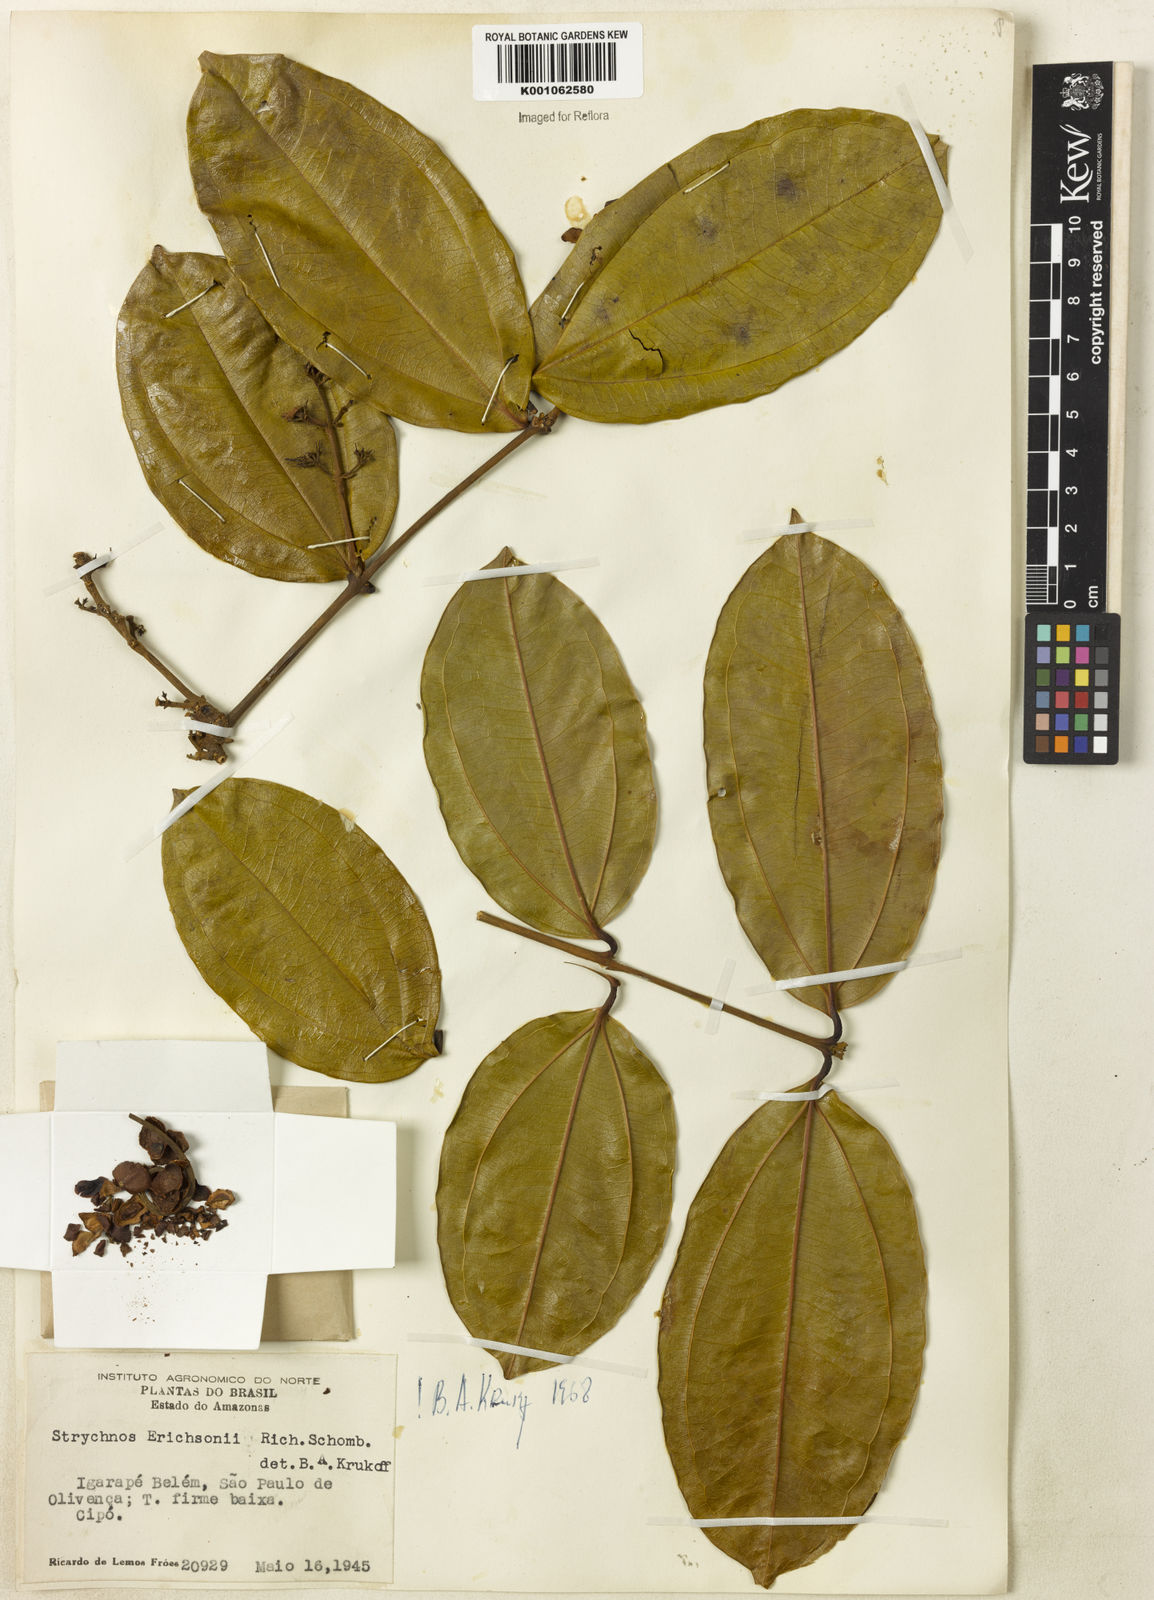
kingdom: Plantae
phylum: Tracheophyta
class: Magnoliopsida
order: Gentianales
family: Loganiaceae
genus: Strychnos
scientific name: Strychnos erichsonii
